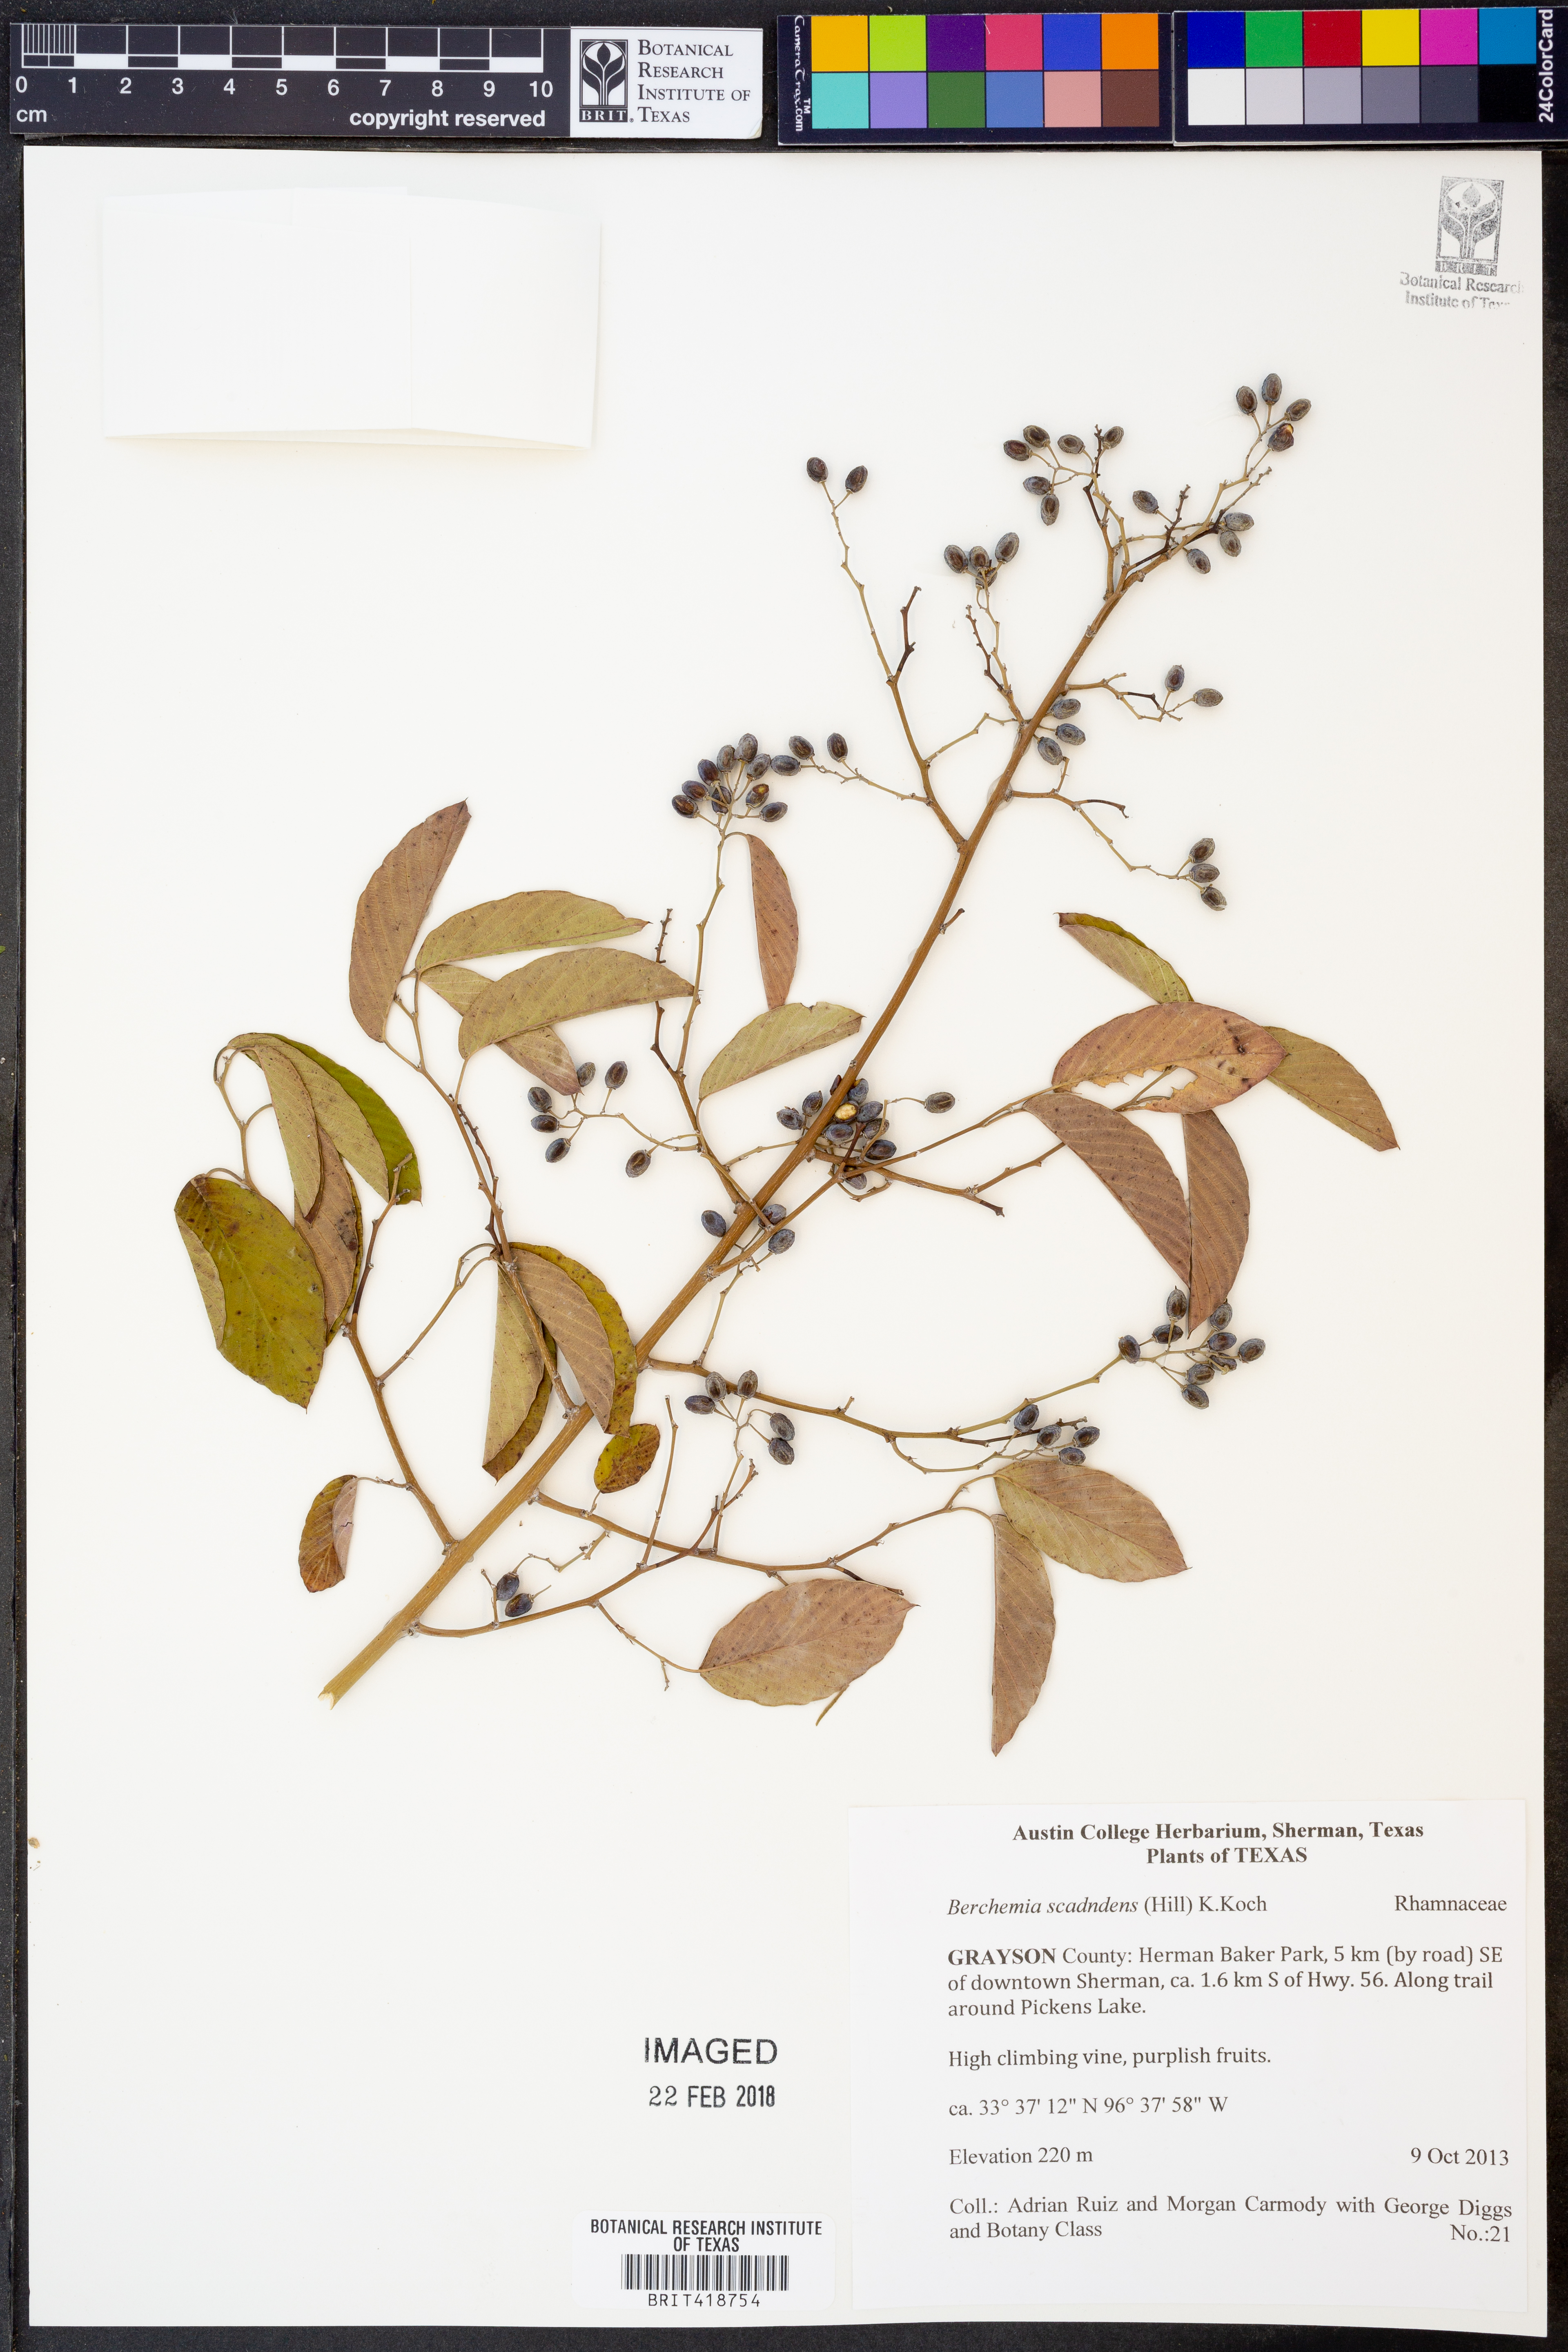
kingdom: Plantae
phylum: Tracheophyta
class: Magnoliopsida
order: Rosales
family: Rhamnaceae
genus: Berchemia
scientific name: Berchemia scandens
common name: Supplejack
